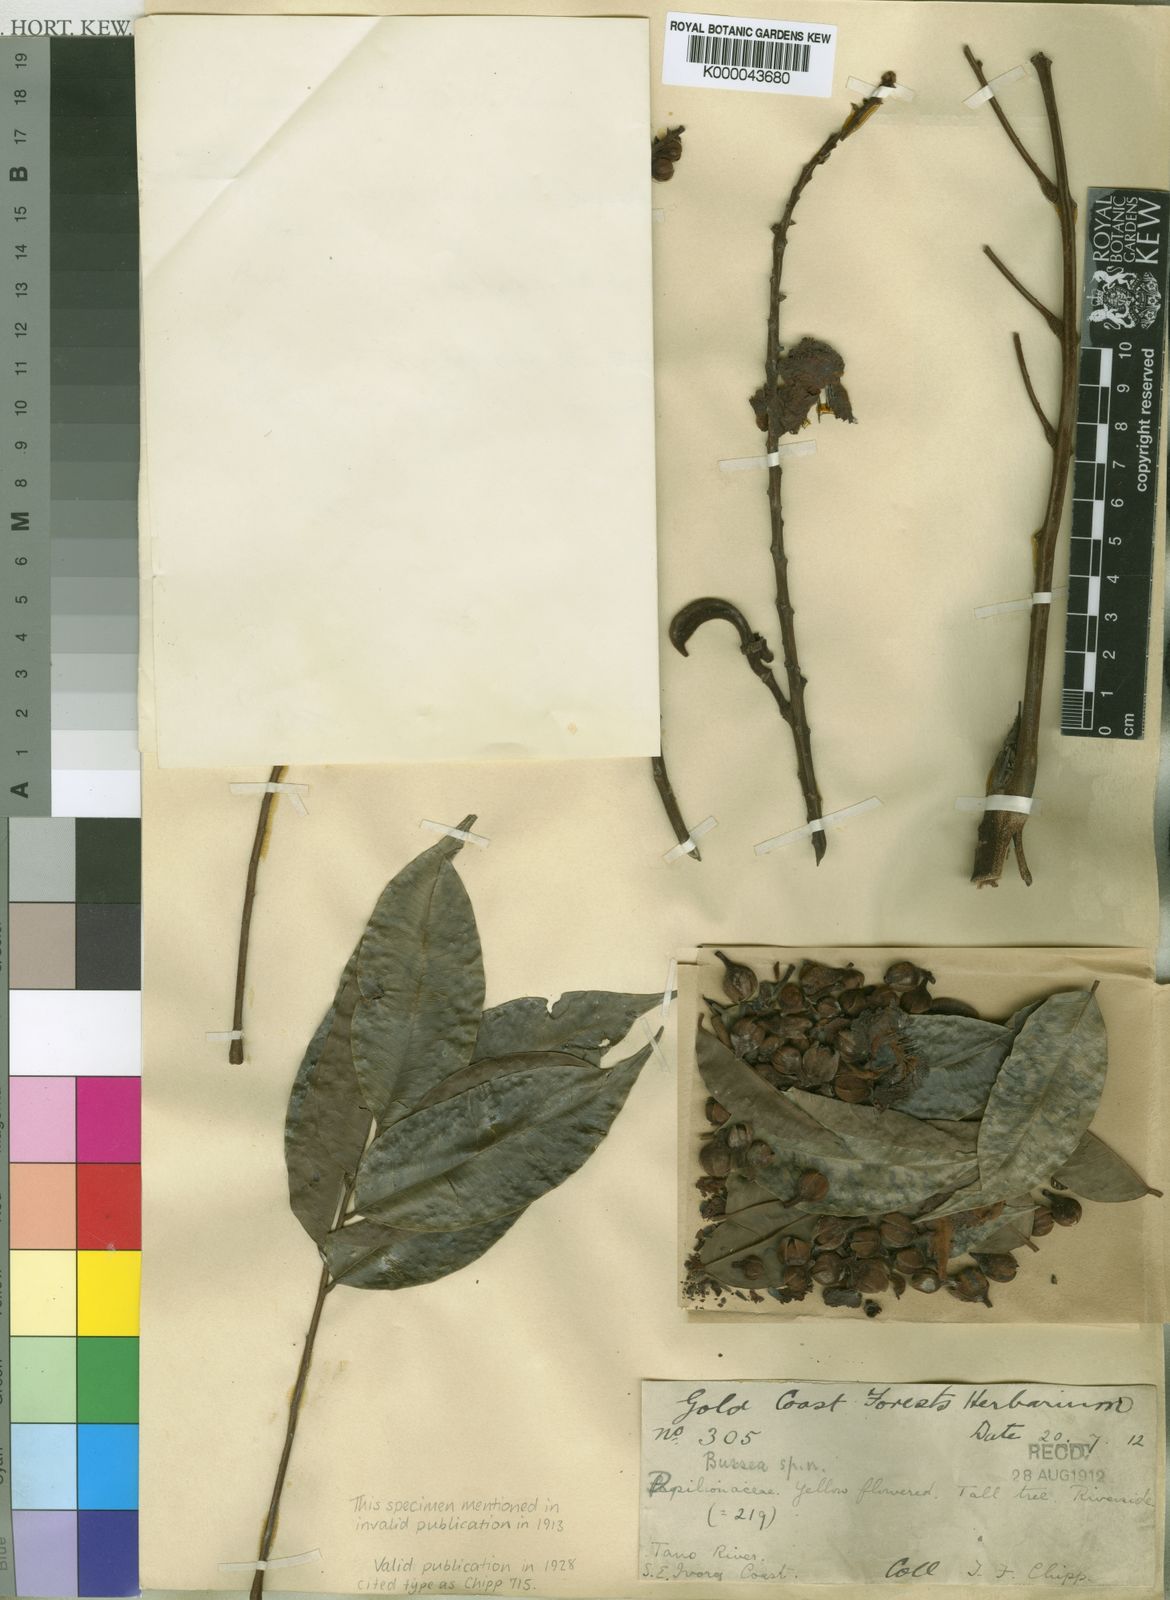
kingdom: Plantae
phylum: Tracheophyta
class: Magnoliopsida
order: Fabales
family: Fabaceae
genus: Bussea
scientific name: Bussea occidentalis
